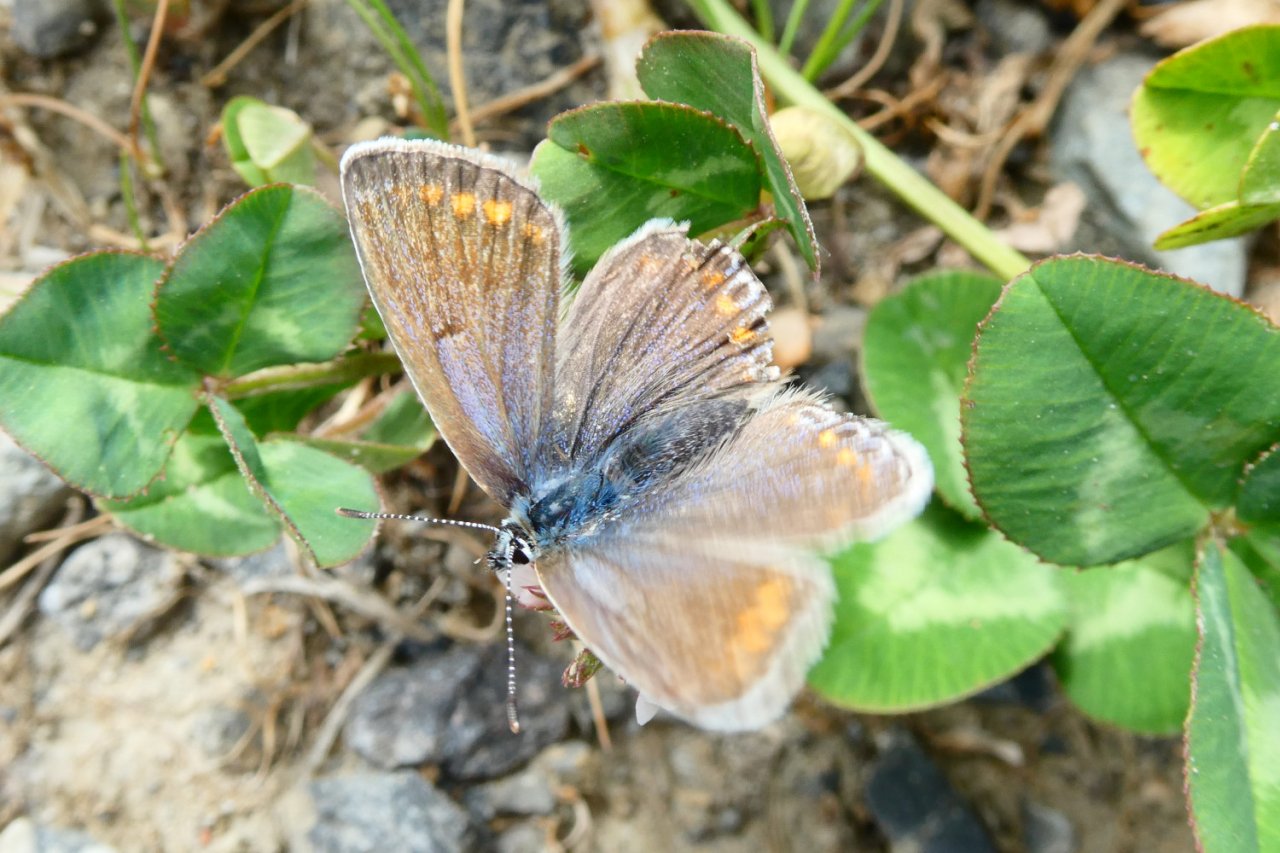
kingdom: Animalia
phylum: Arthropoda
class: Insecta
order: Lepidoptera
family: Lycaenidae
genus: Polyommatus
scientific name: Polyommatus icarus
